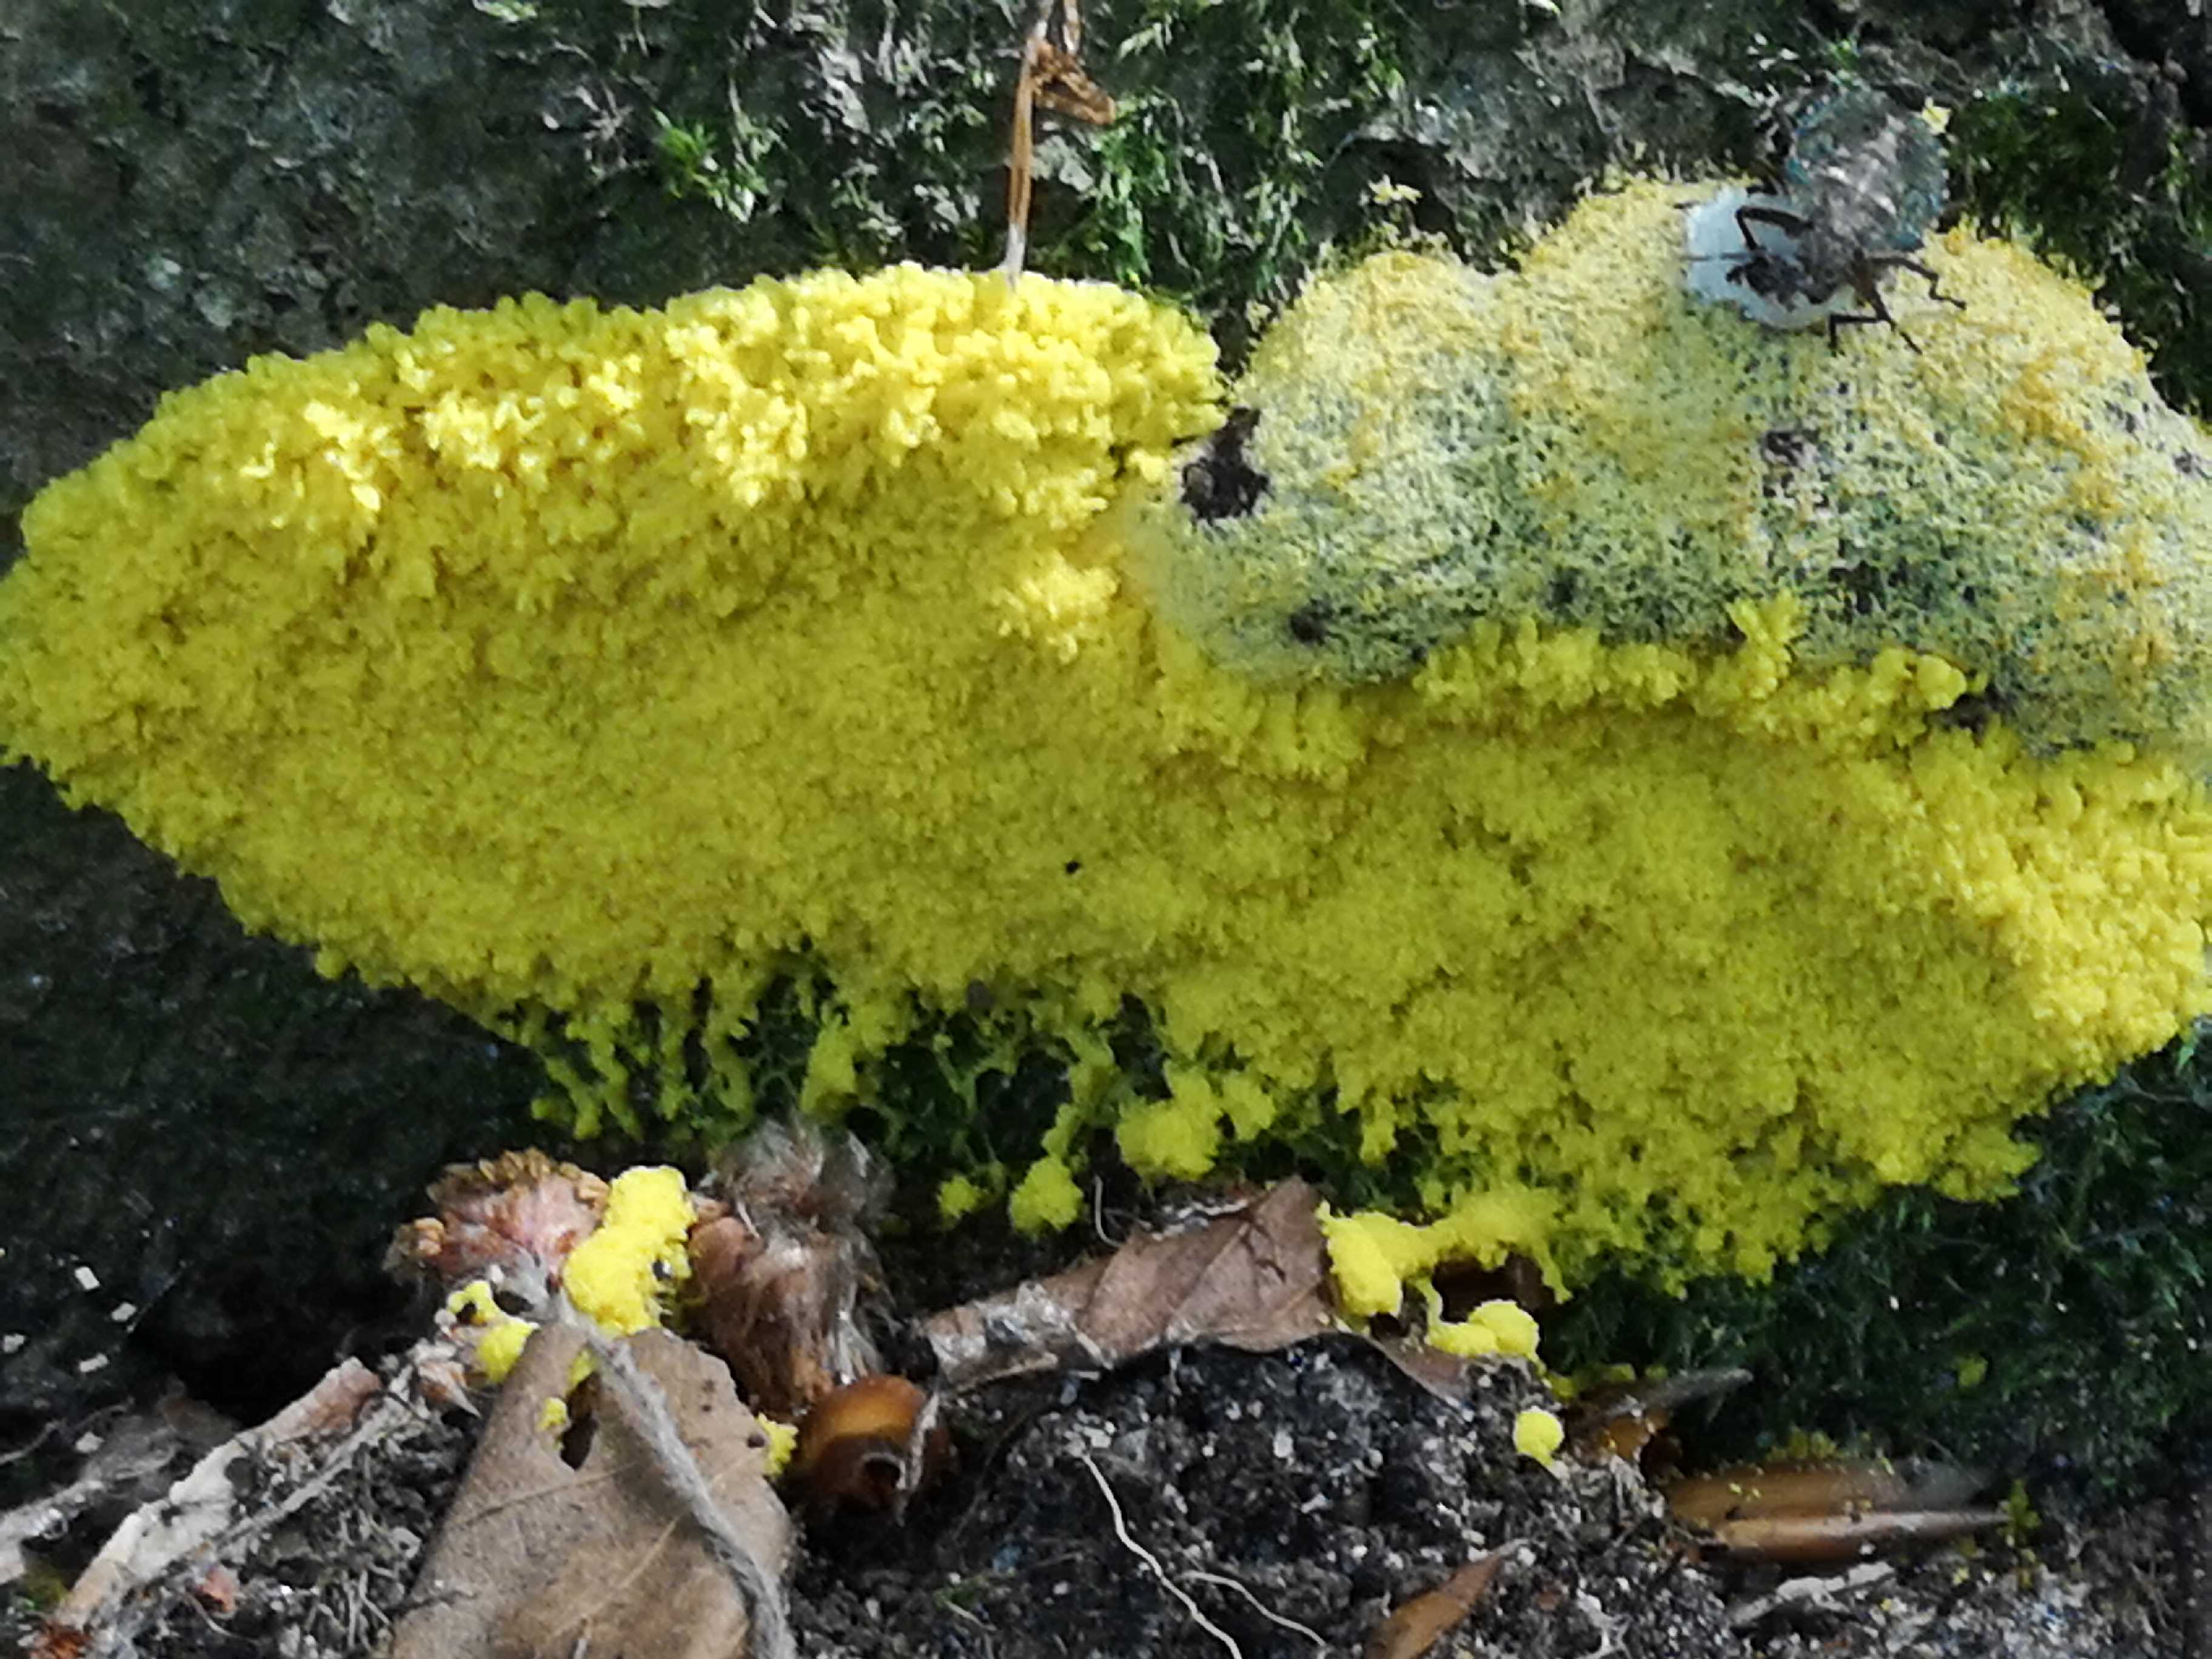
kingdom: Protozoa
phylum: Mycetozoa
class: Myxomycetes
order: Physarales
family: Physaraceae
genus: Fuligo
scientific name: Fuligo septica
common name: gul troldsmør
